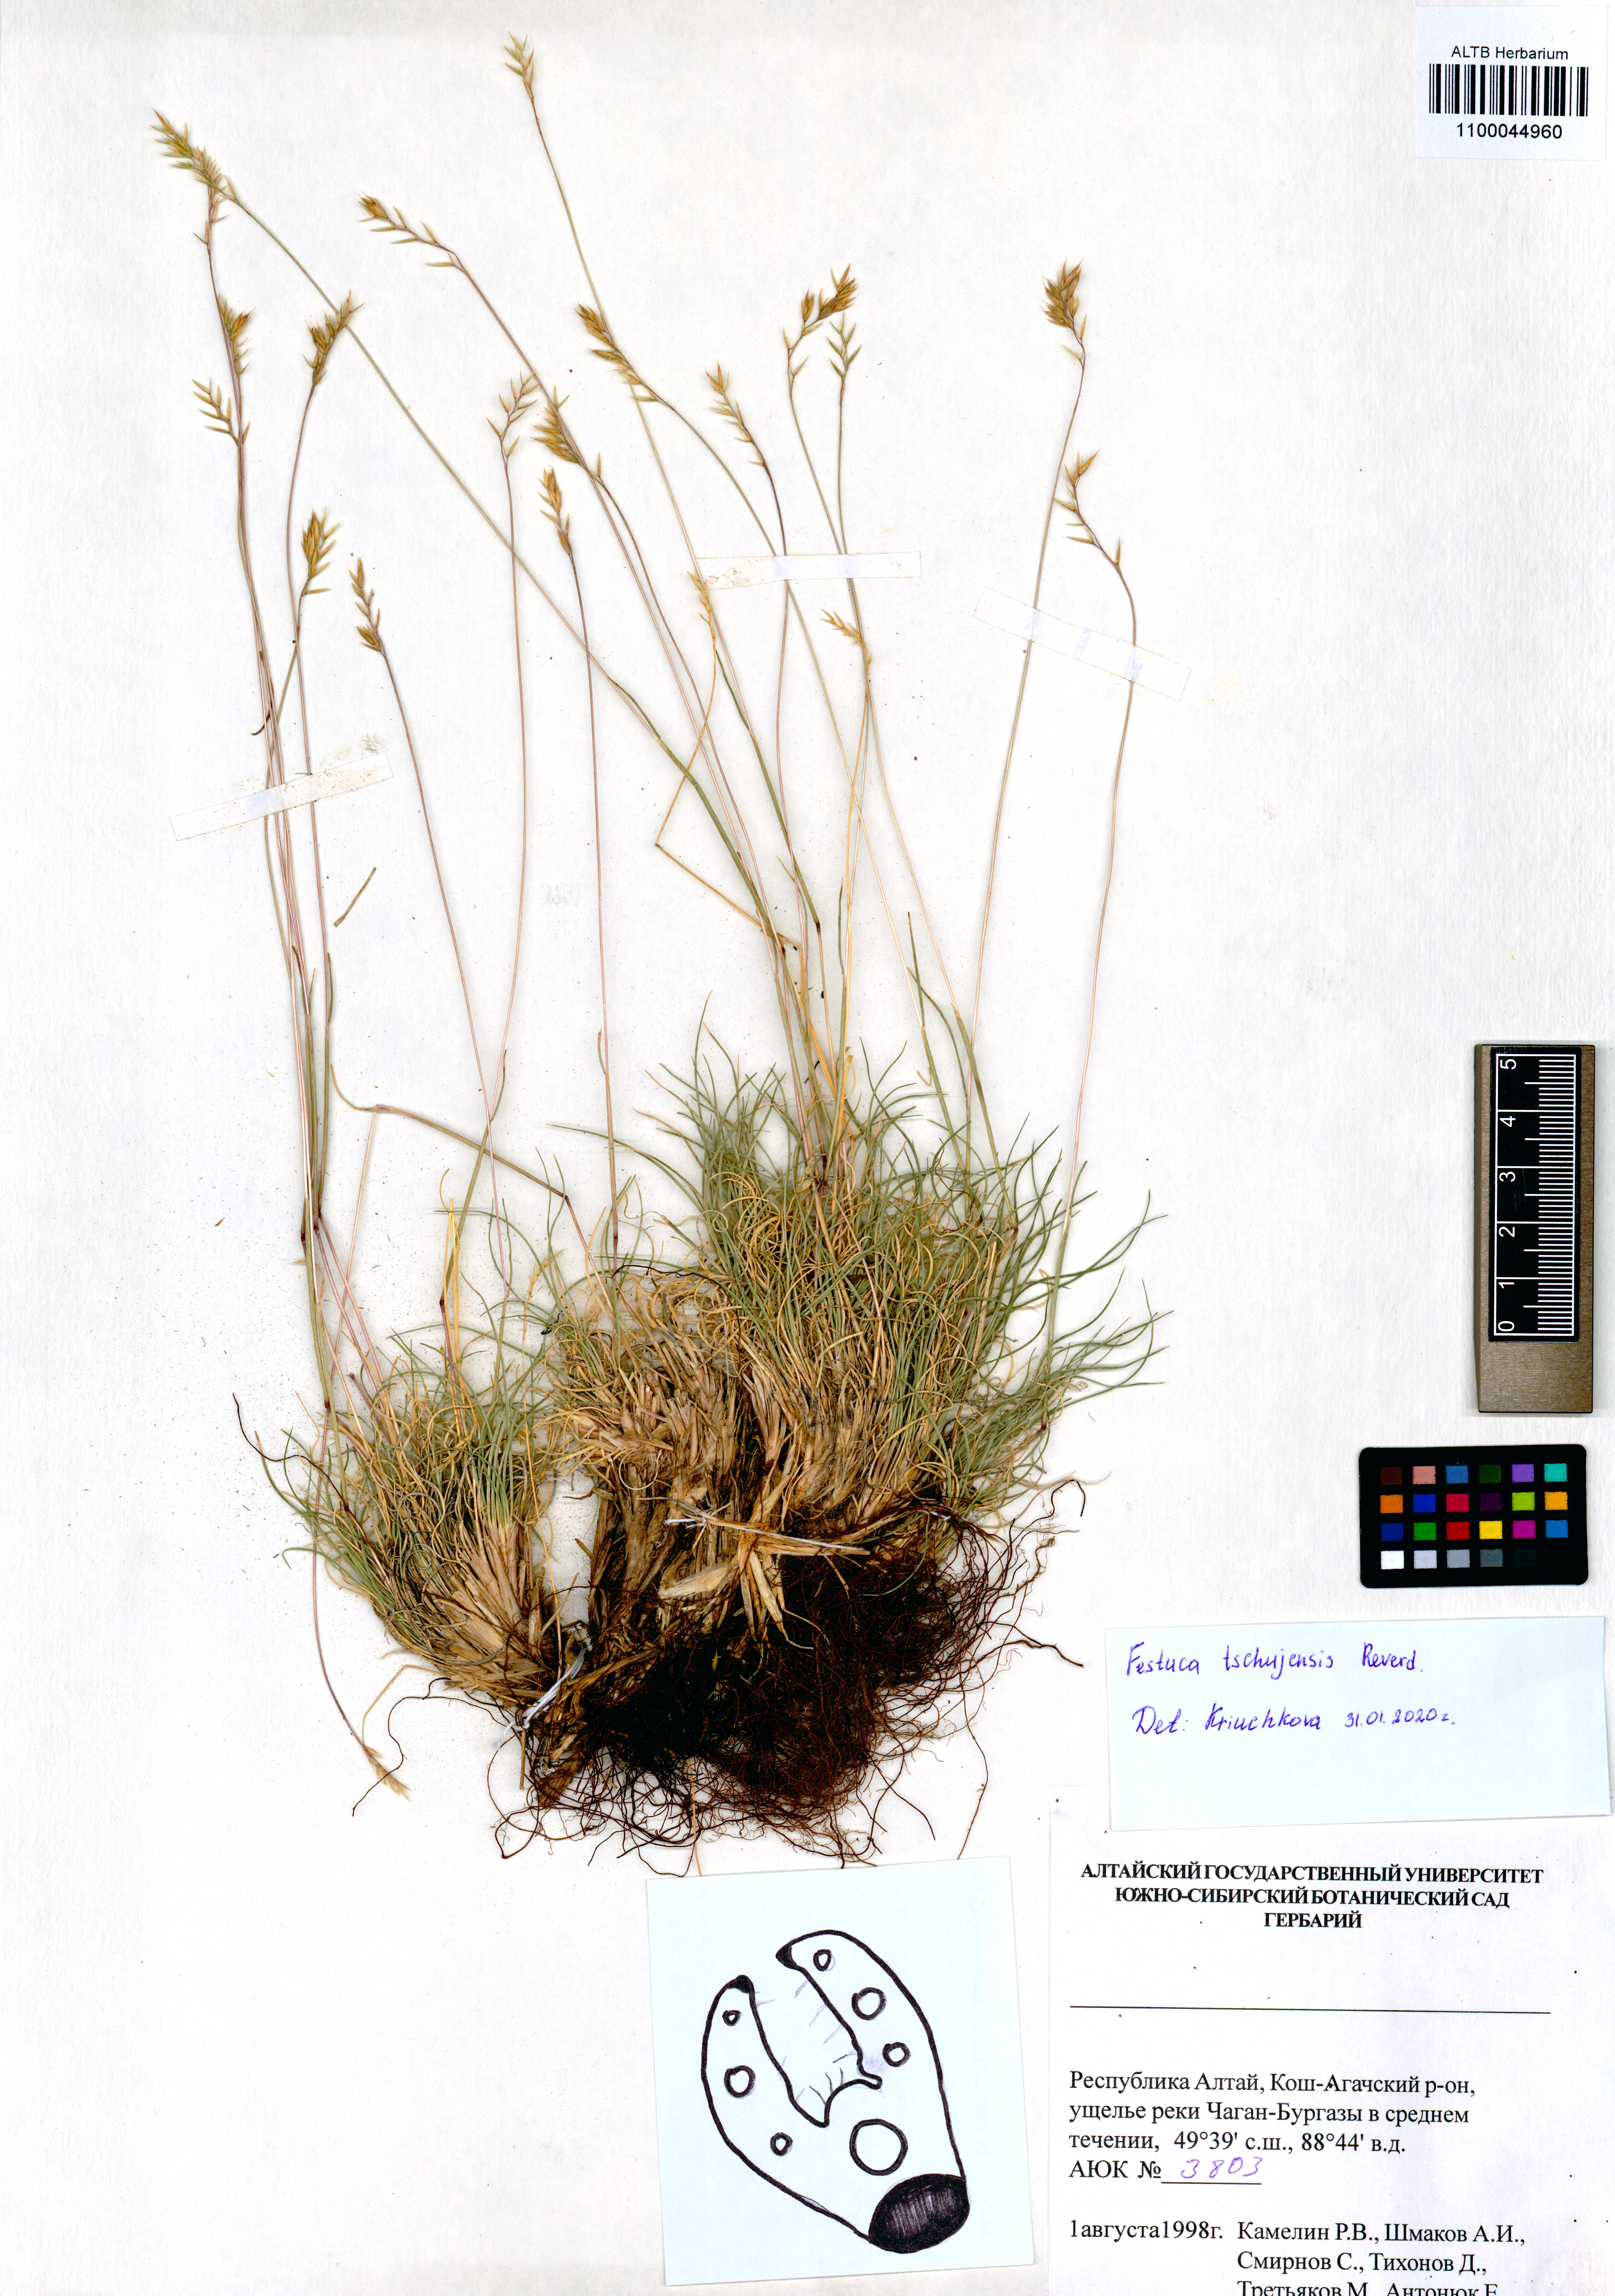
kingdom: Plantae
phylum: Tracheophyta
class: Liliopsida
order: Poales
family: Poaceae
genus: Festuca
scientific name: Festuca tschujensis
